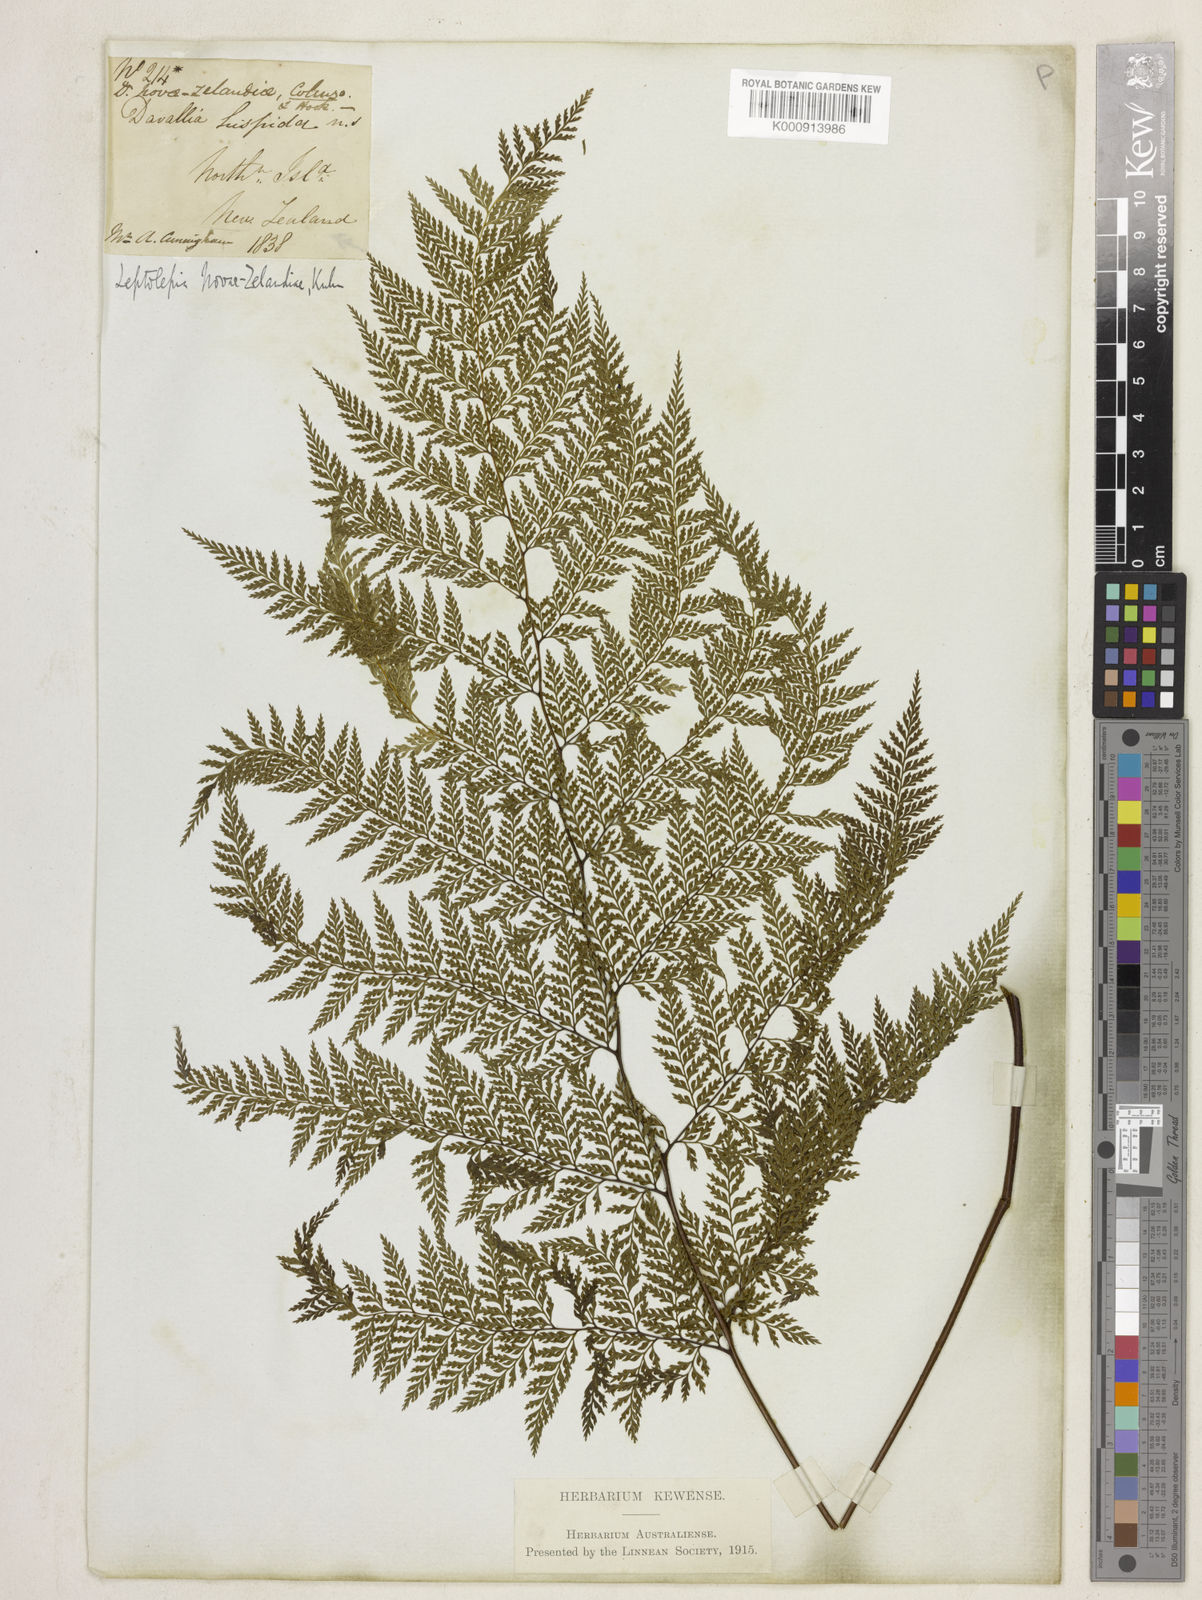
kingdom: Plantae
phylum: Tracheophyta
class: Polypodiopsida
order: Polypodiales
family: Dennstaedtiaceae
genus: Dennstaedtia
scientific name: Dennstaedtia novae-zelandiae
